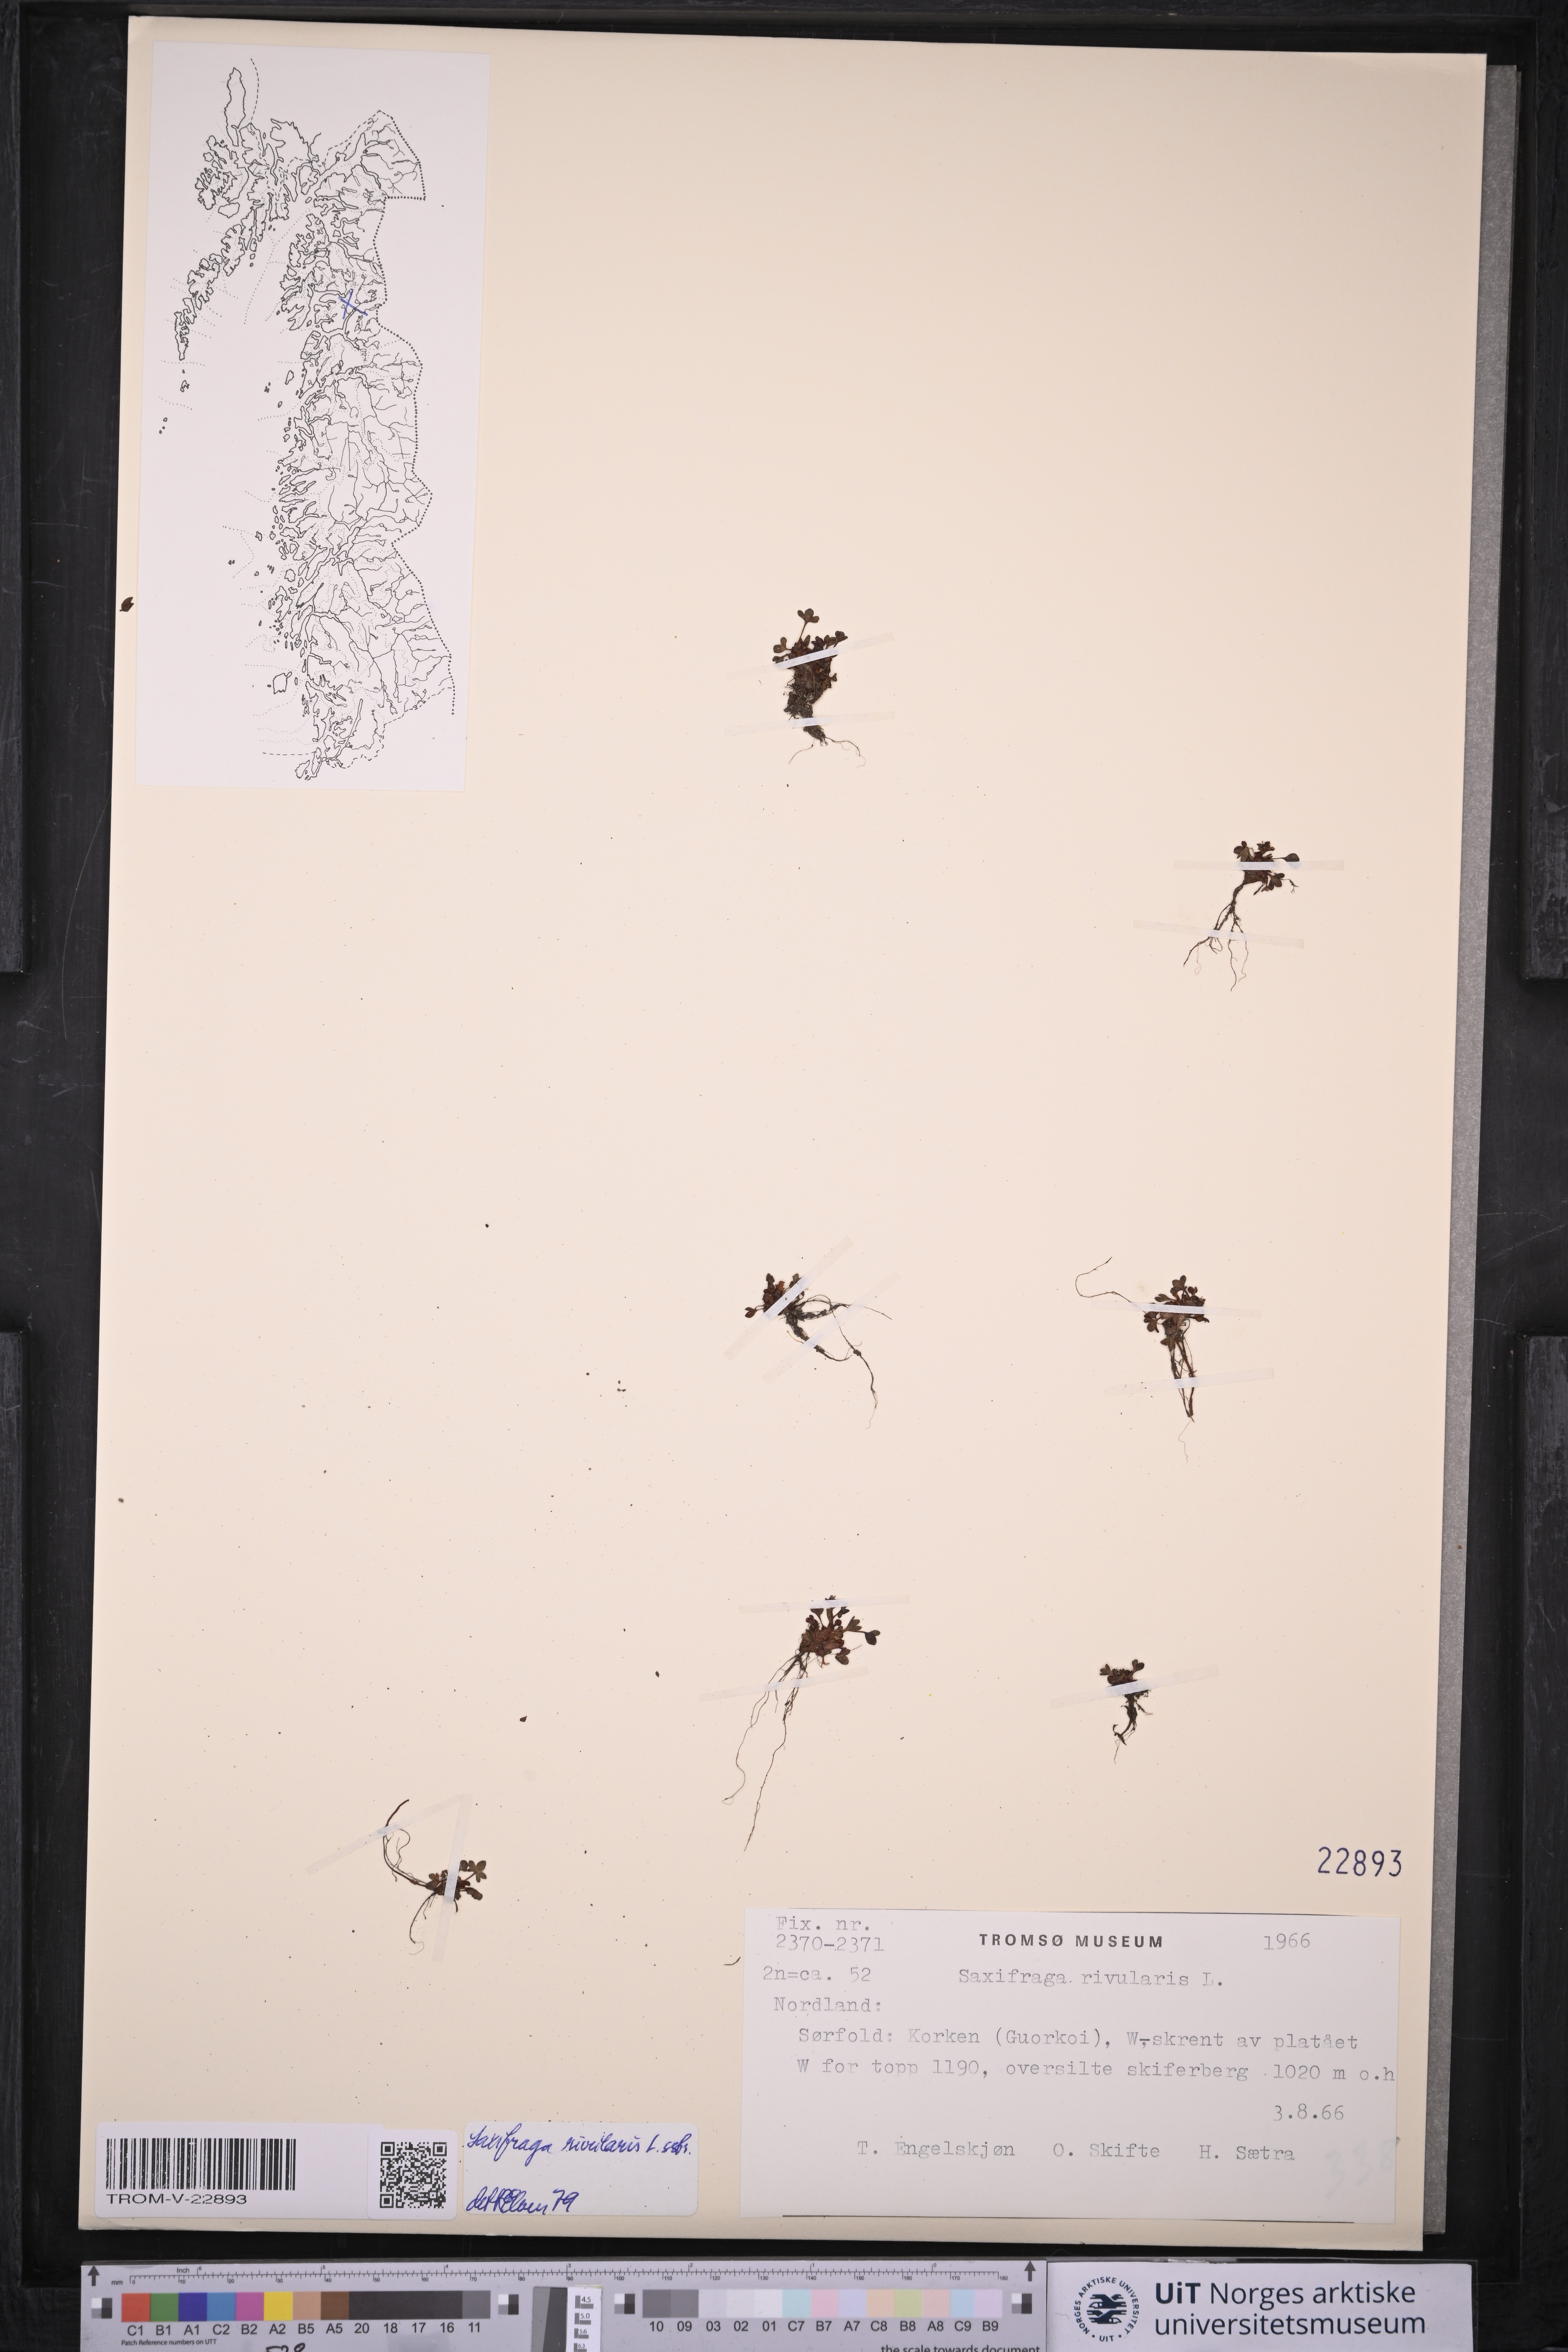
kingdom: Plantae
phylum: Tracheophyta
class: Magnoliopsida
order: Saxifragales
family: Saxifragaceae
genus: Saxifraga
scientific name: Saxifraga rivularis
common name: Highland saxifrage
